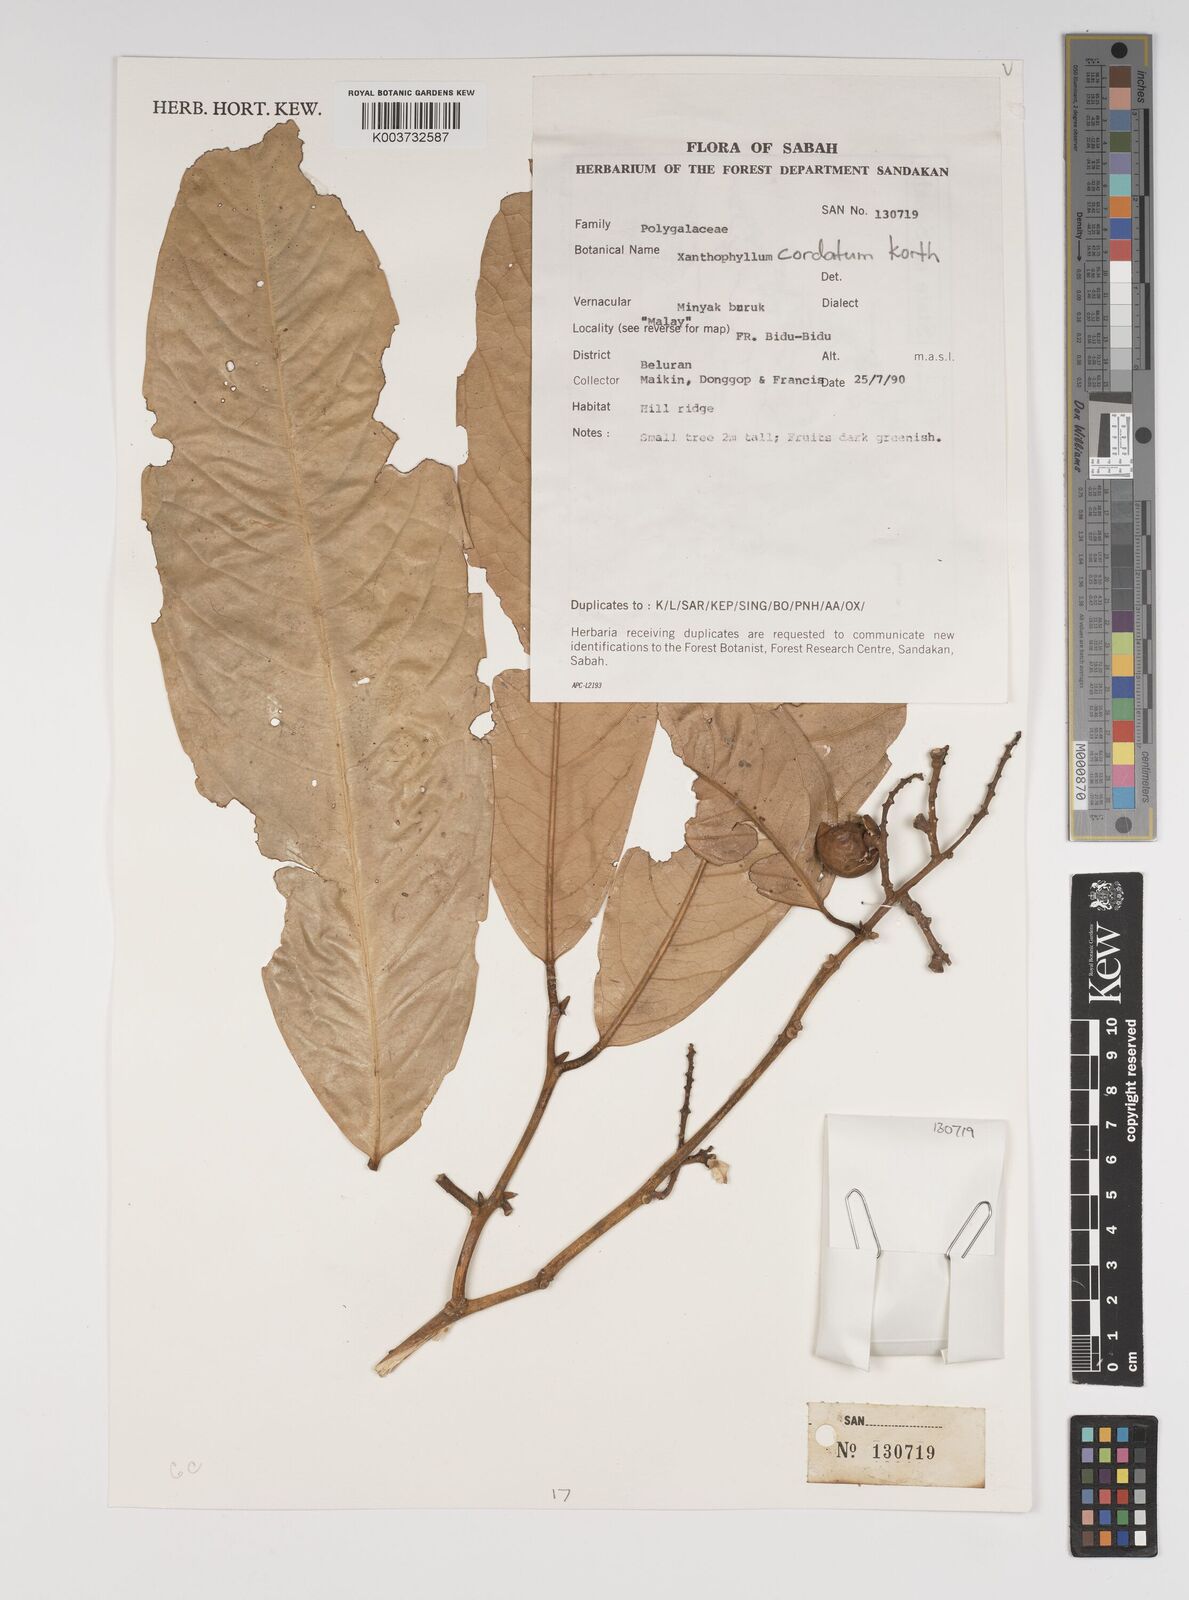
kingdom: Plantae
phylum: Tracheophyta
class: Magnoliopsida
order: Fabales
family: Polygalaceae
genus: Xanthophyllum
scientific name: Xanthophyllum adenotus
